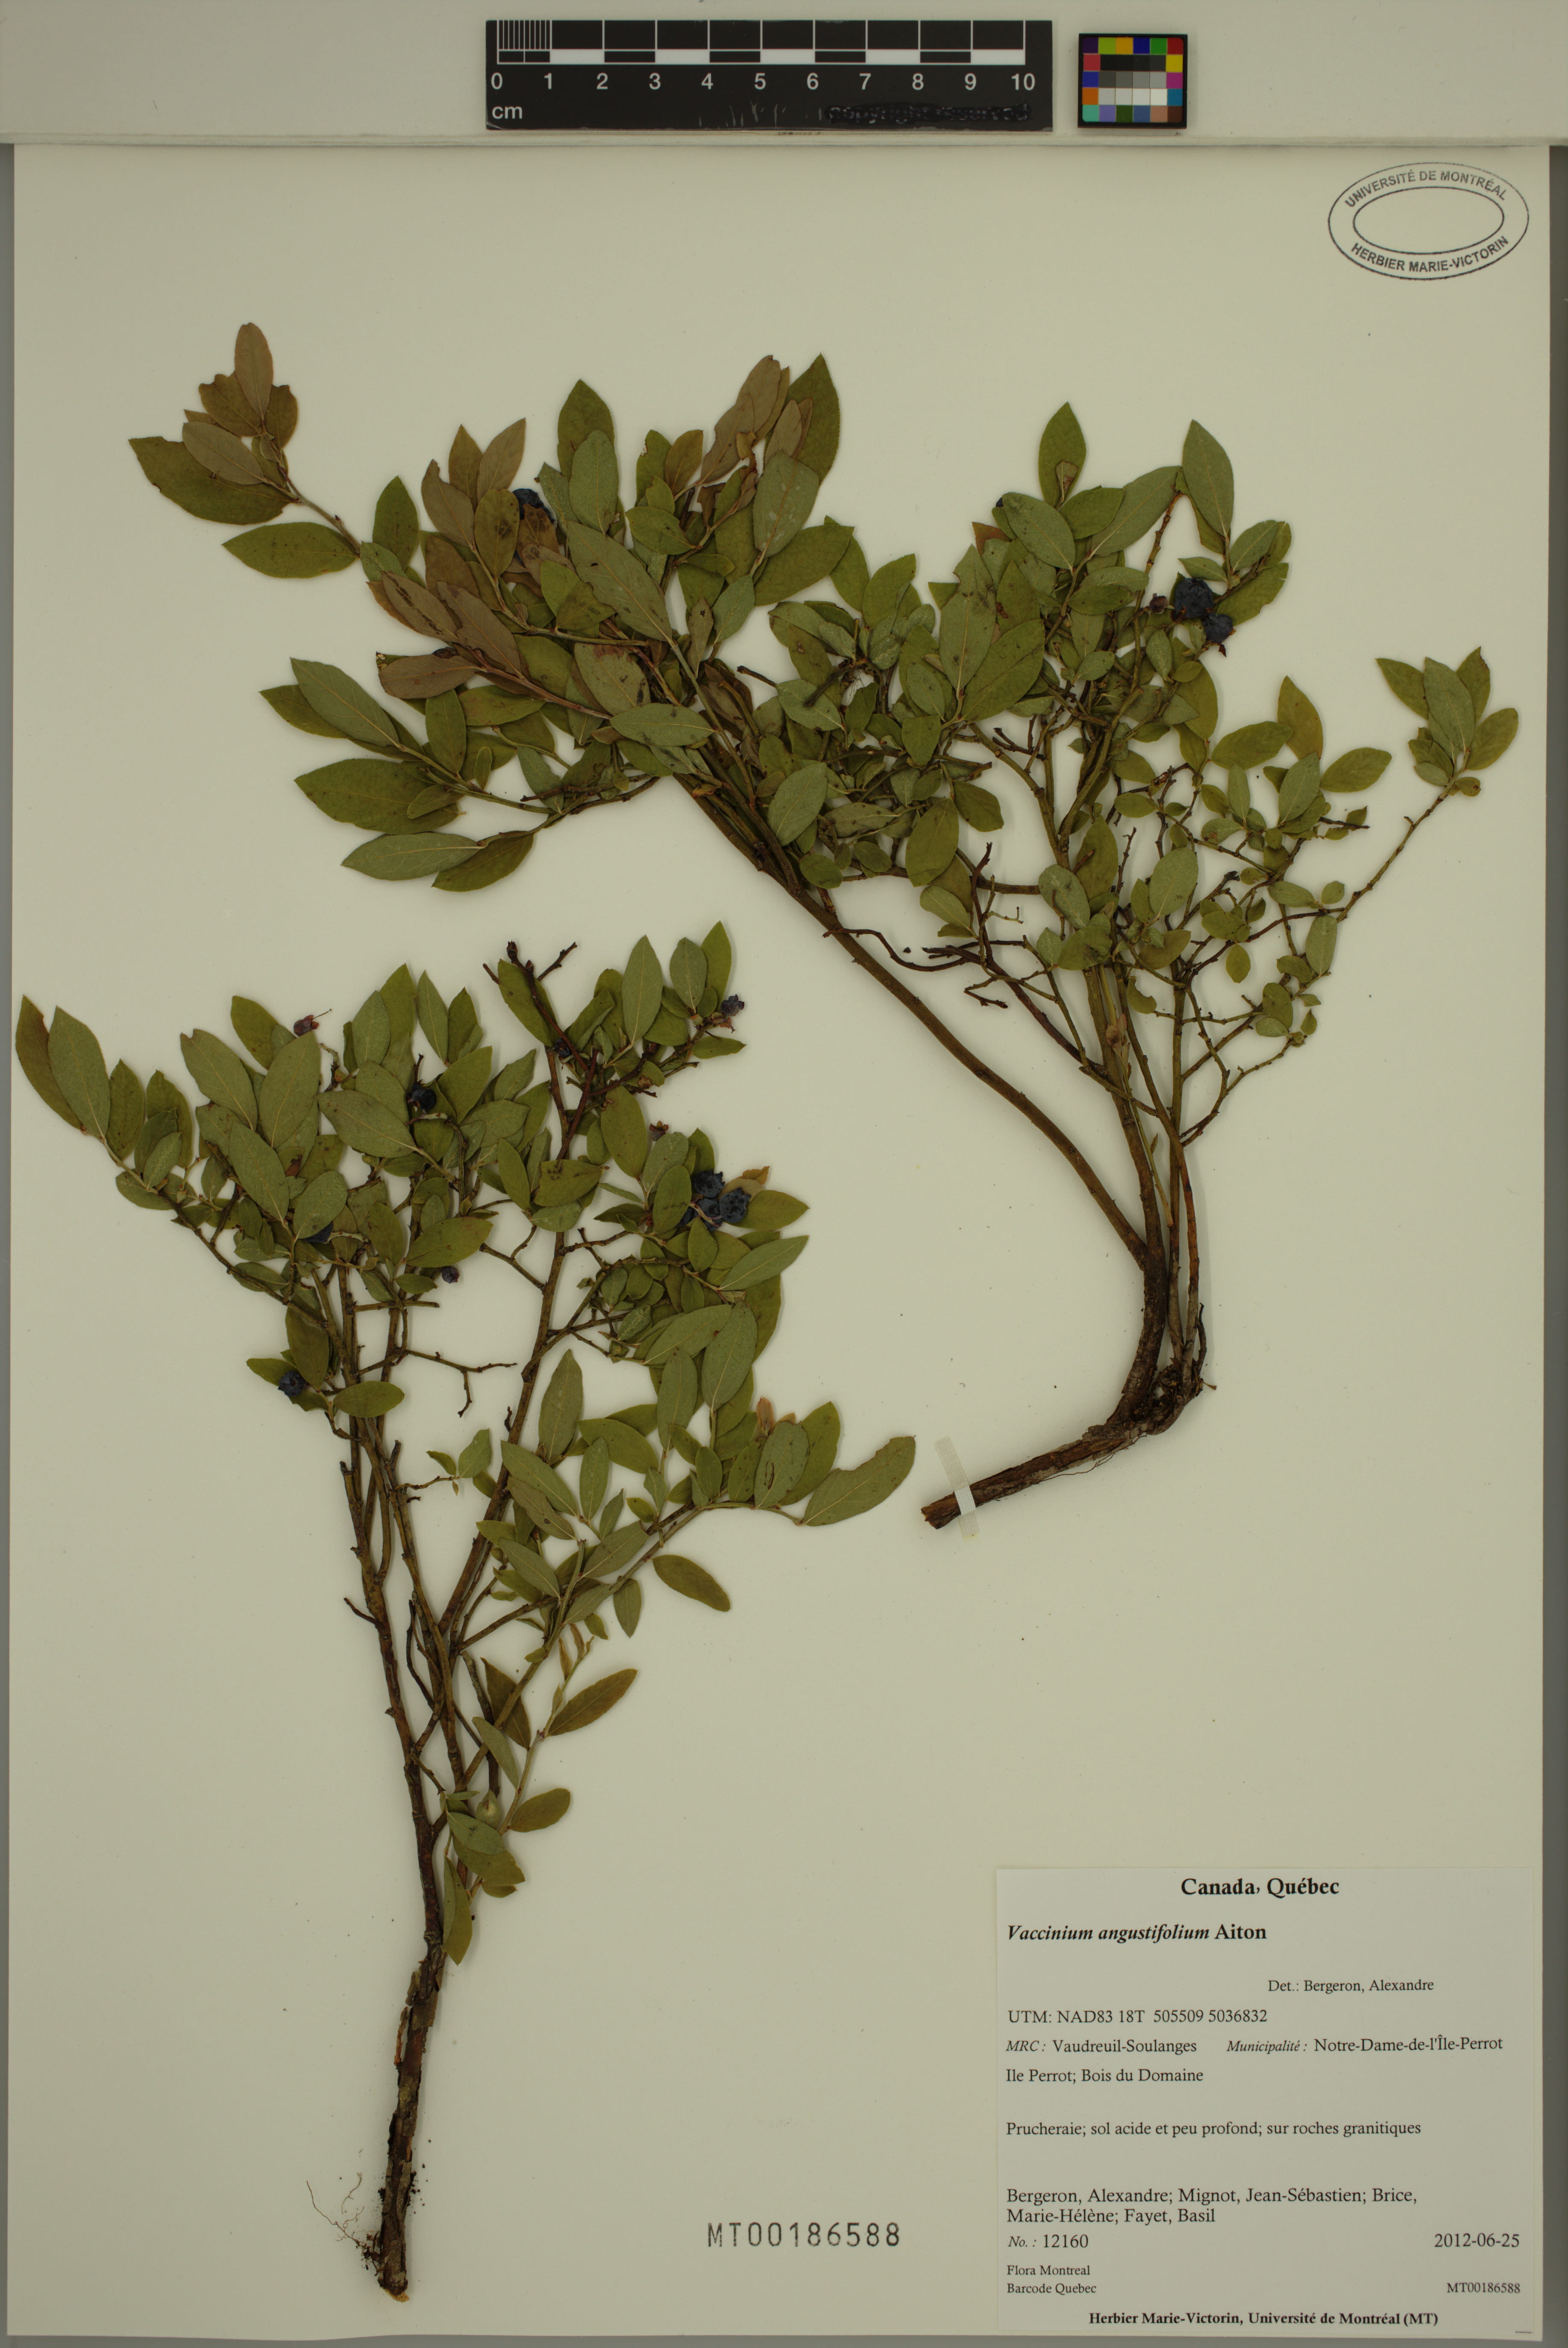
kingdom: Plantae
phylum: Tracheophyta
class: Magnoliopsida
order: Ericales
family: Ericaceae
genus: Vaccinium
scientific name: Vaccinium angustifolium
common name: Early lowbush blueberry
